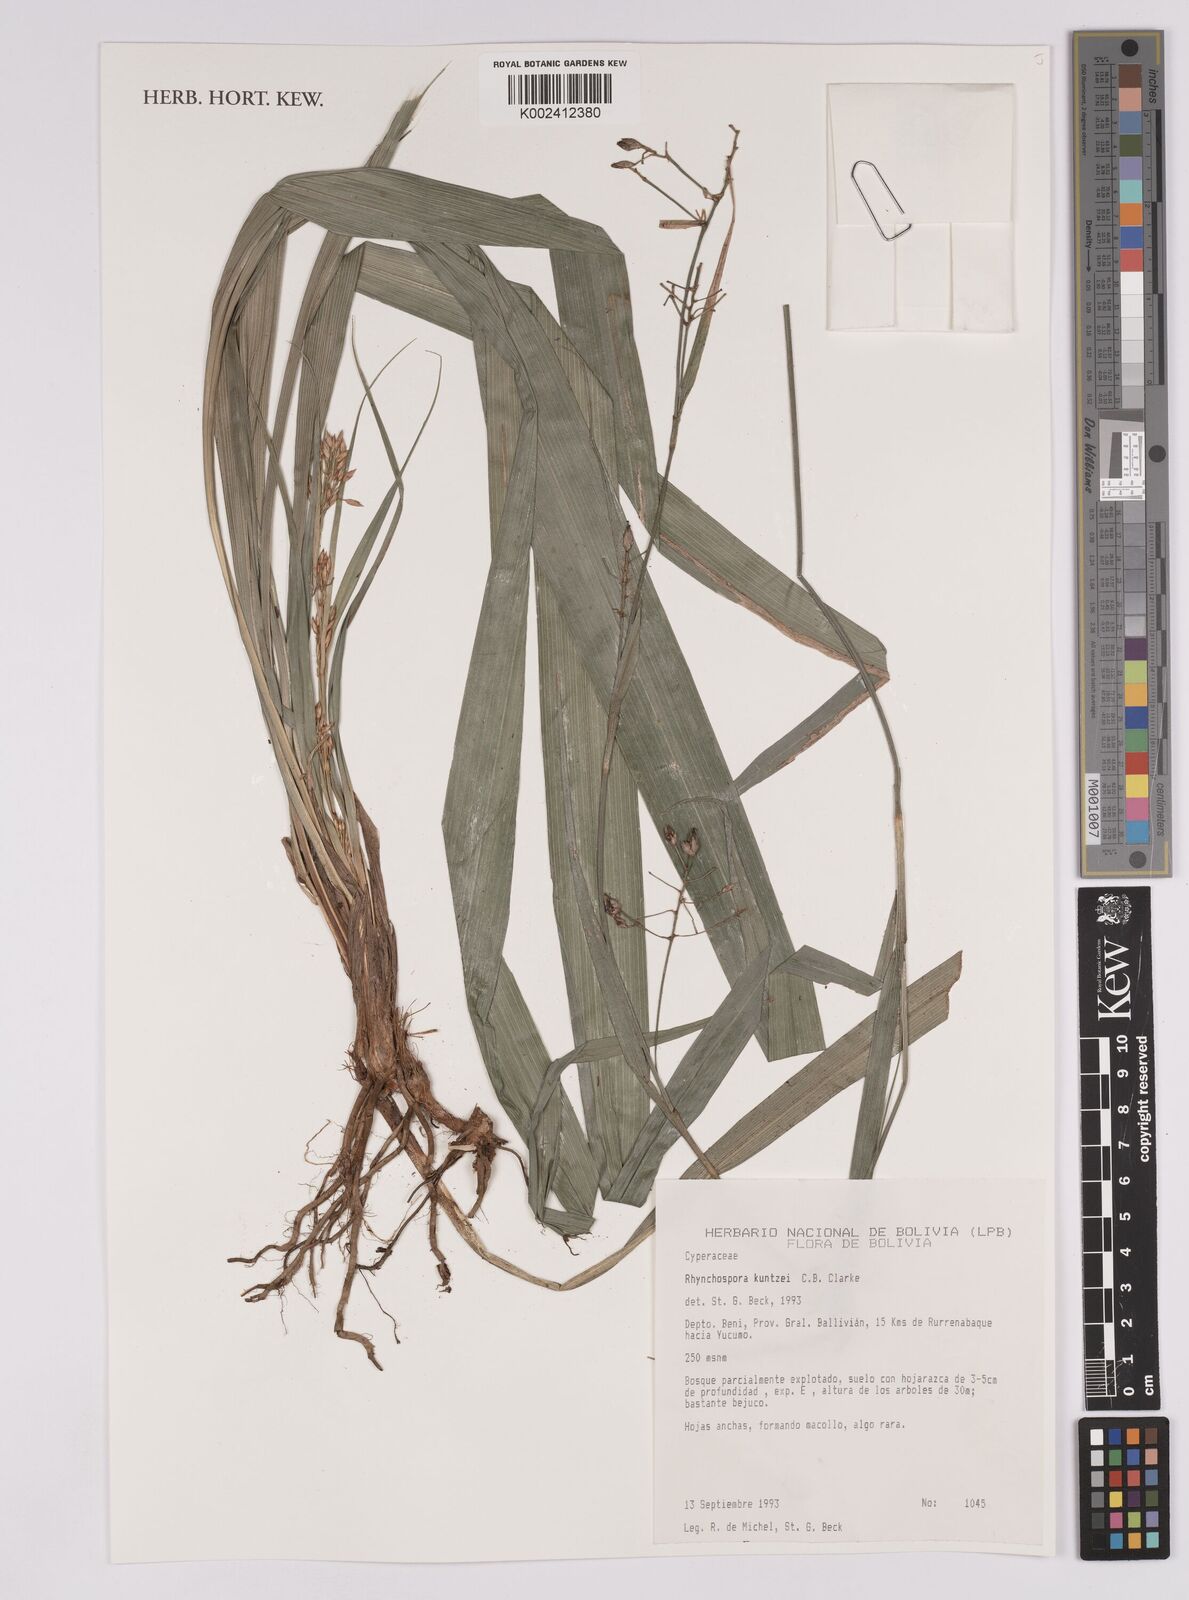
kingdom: Plantae
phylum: Tracheophyta
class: Liliopsida
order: Poales
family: Cyperaceae
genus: Rhynchospora
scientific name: Rhynchospora umbraticola
